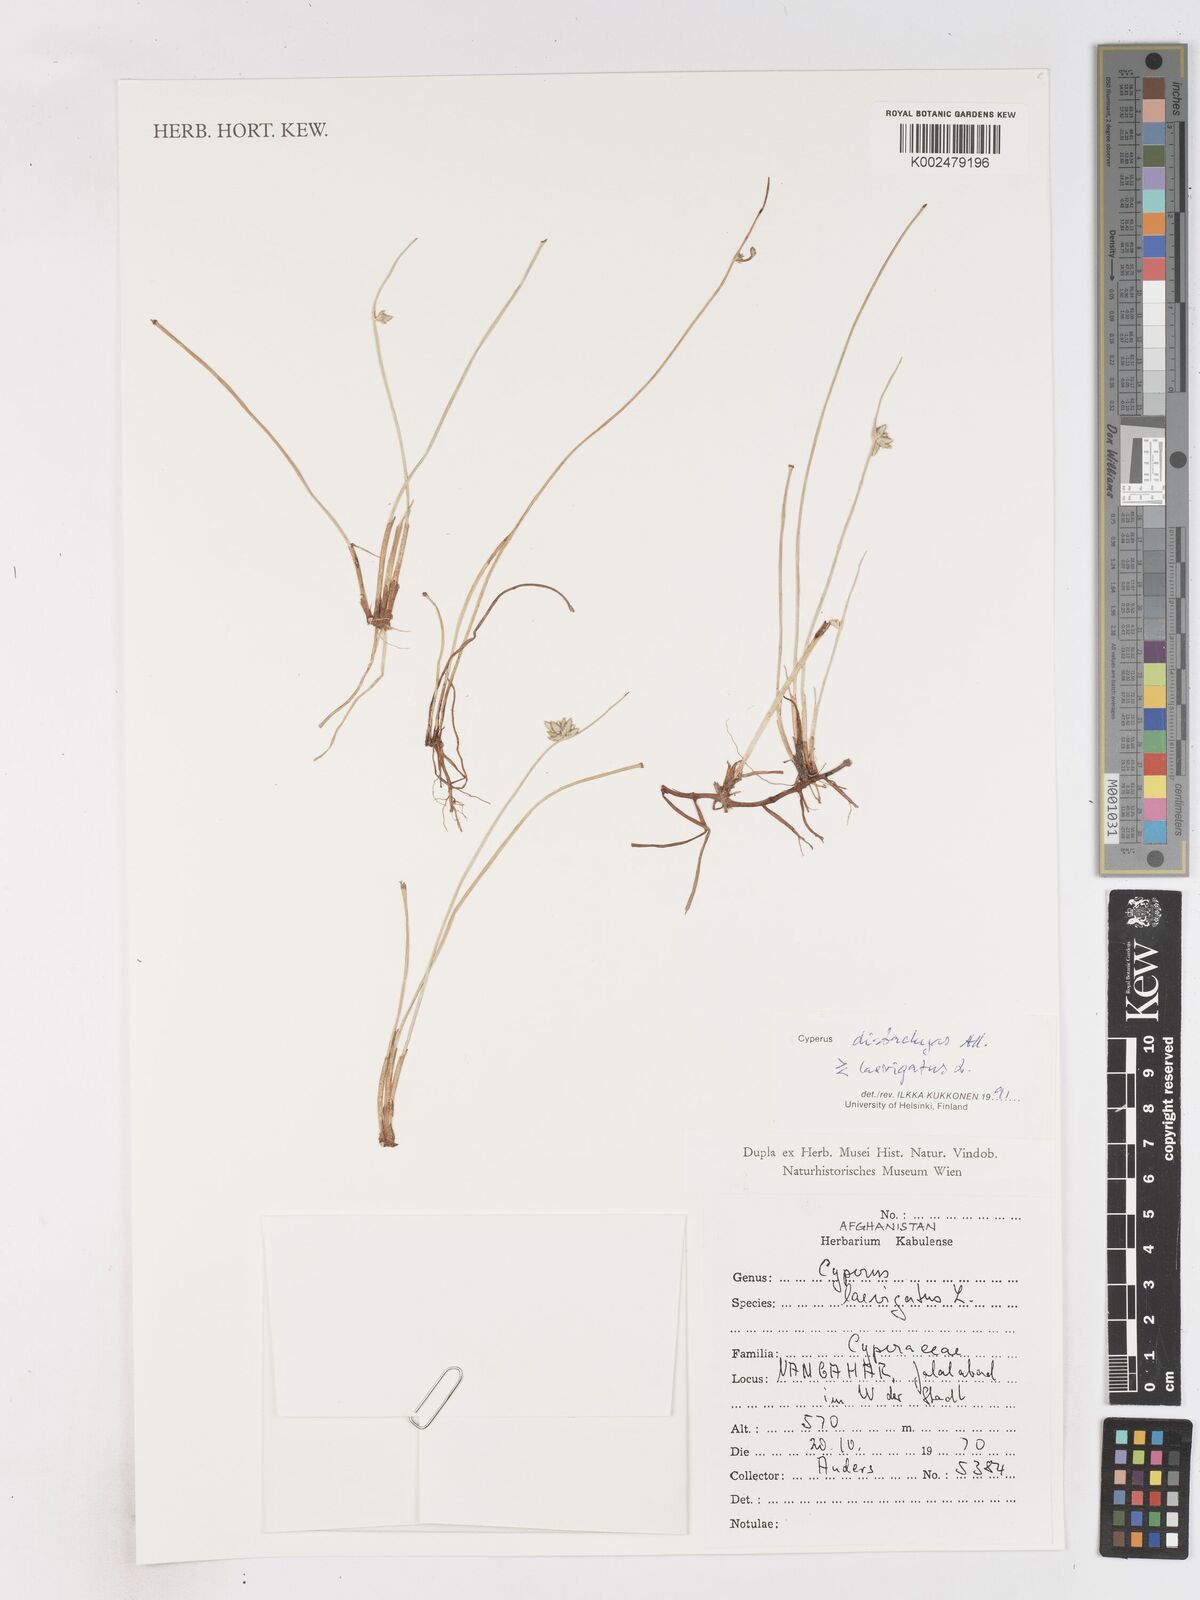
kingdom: Plantae
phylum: Tracheophyta
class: Liliopsida
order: Poales
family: Cyperaceae
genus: Cyperus
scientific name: Cyperus laevigatus
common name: Smooth flat sedge
